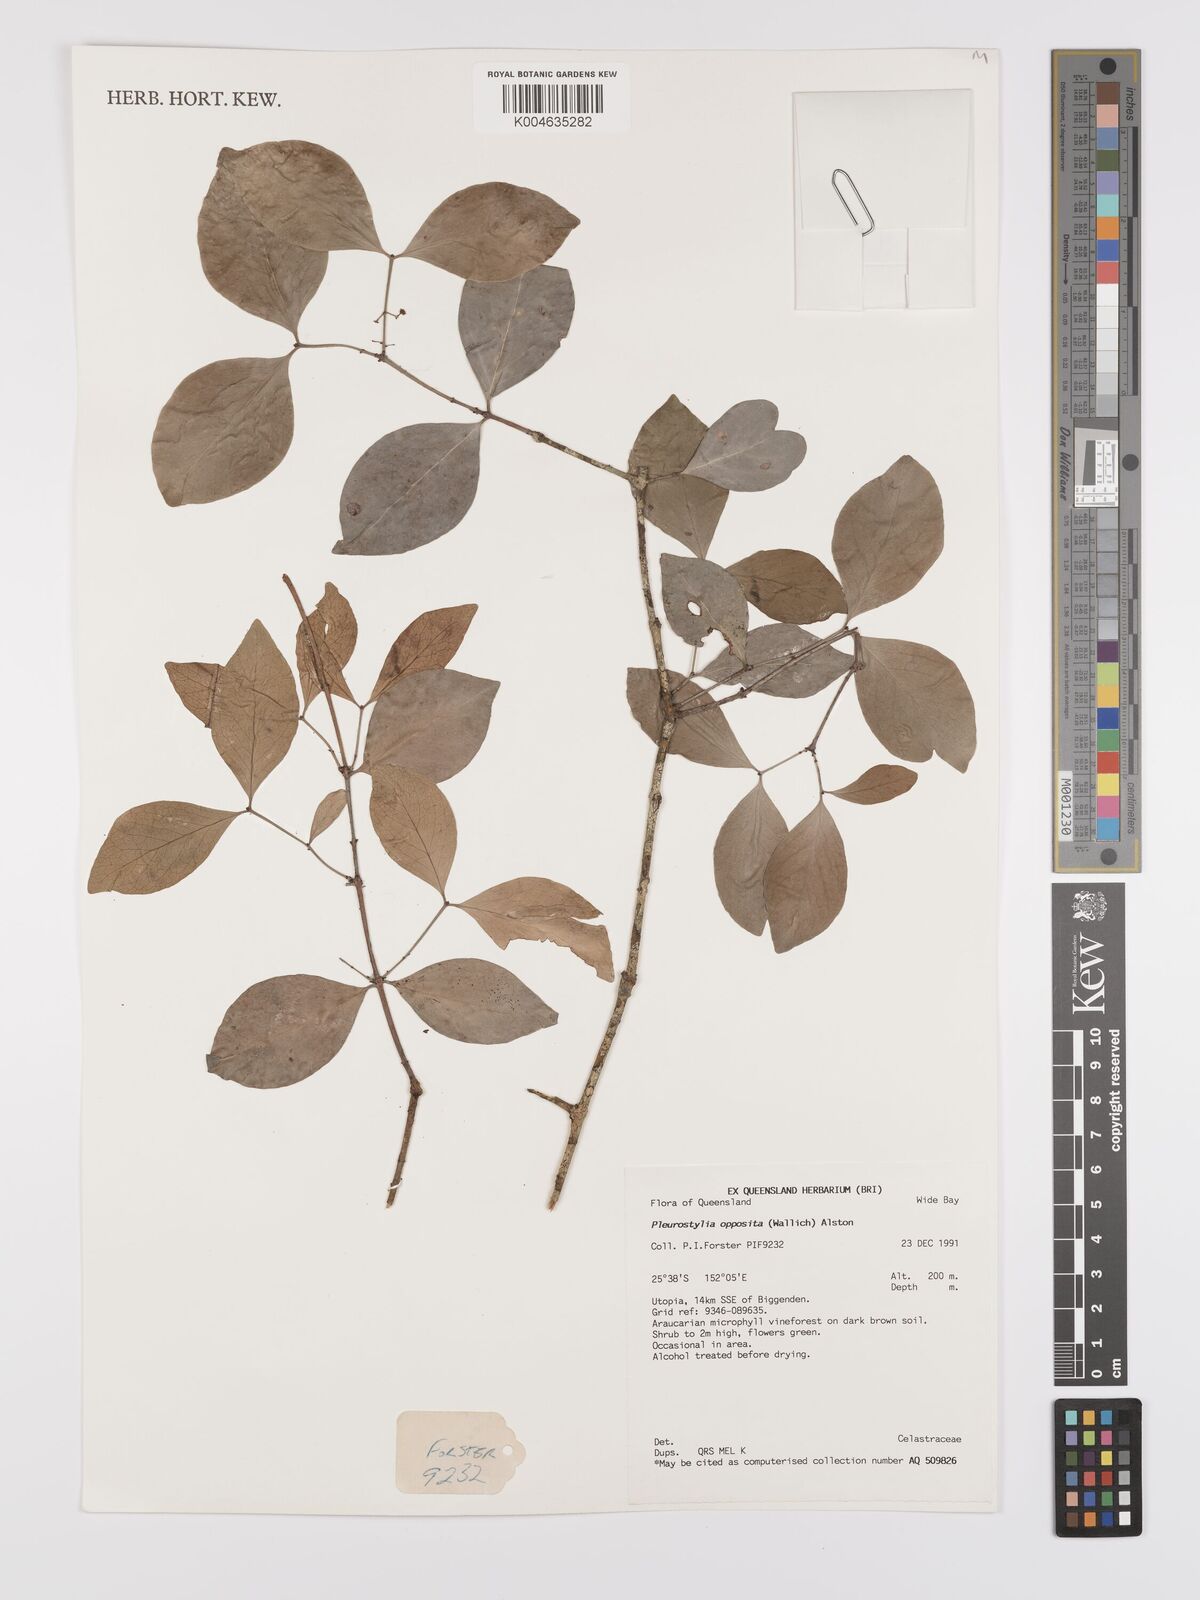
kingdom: Plantae
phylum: Tracheophyta
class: Magnoliopsida
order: Celastrales
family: Celastraceae
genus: Pleurostylia
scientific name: Pleurostylia opposita
